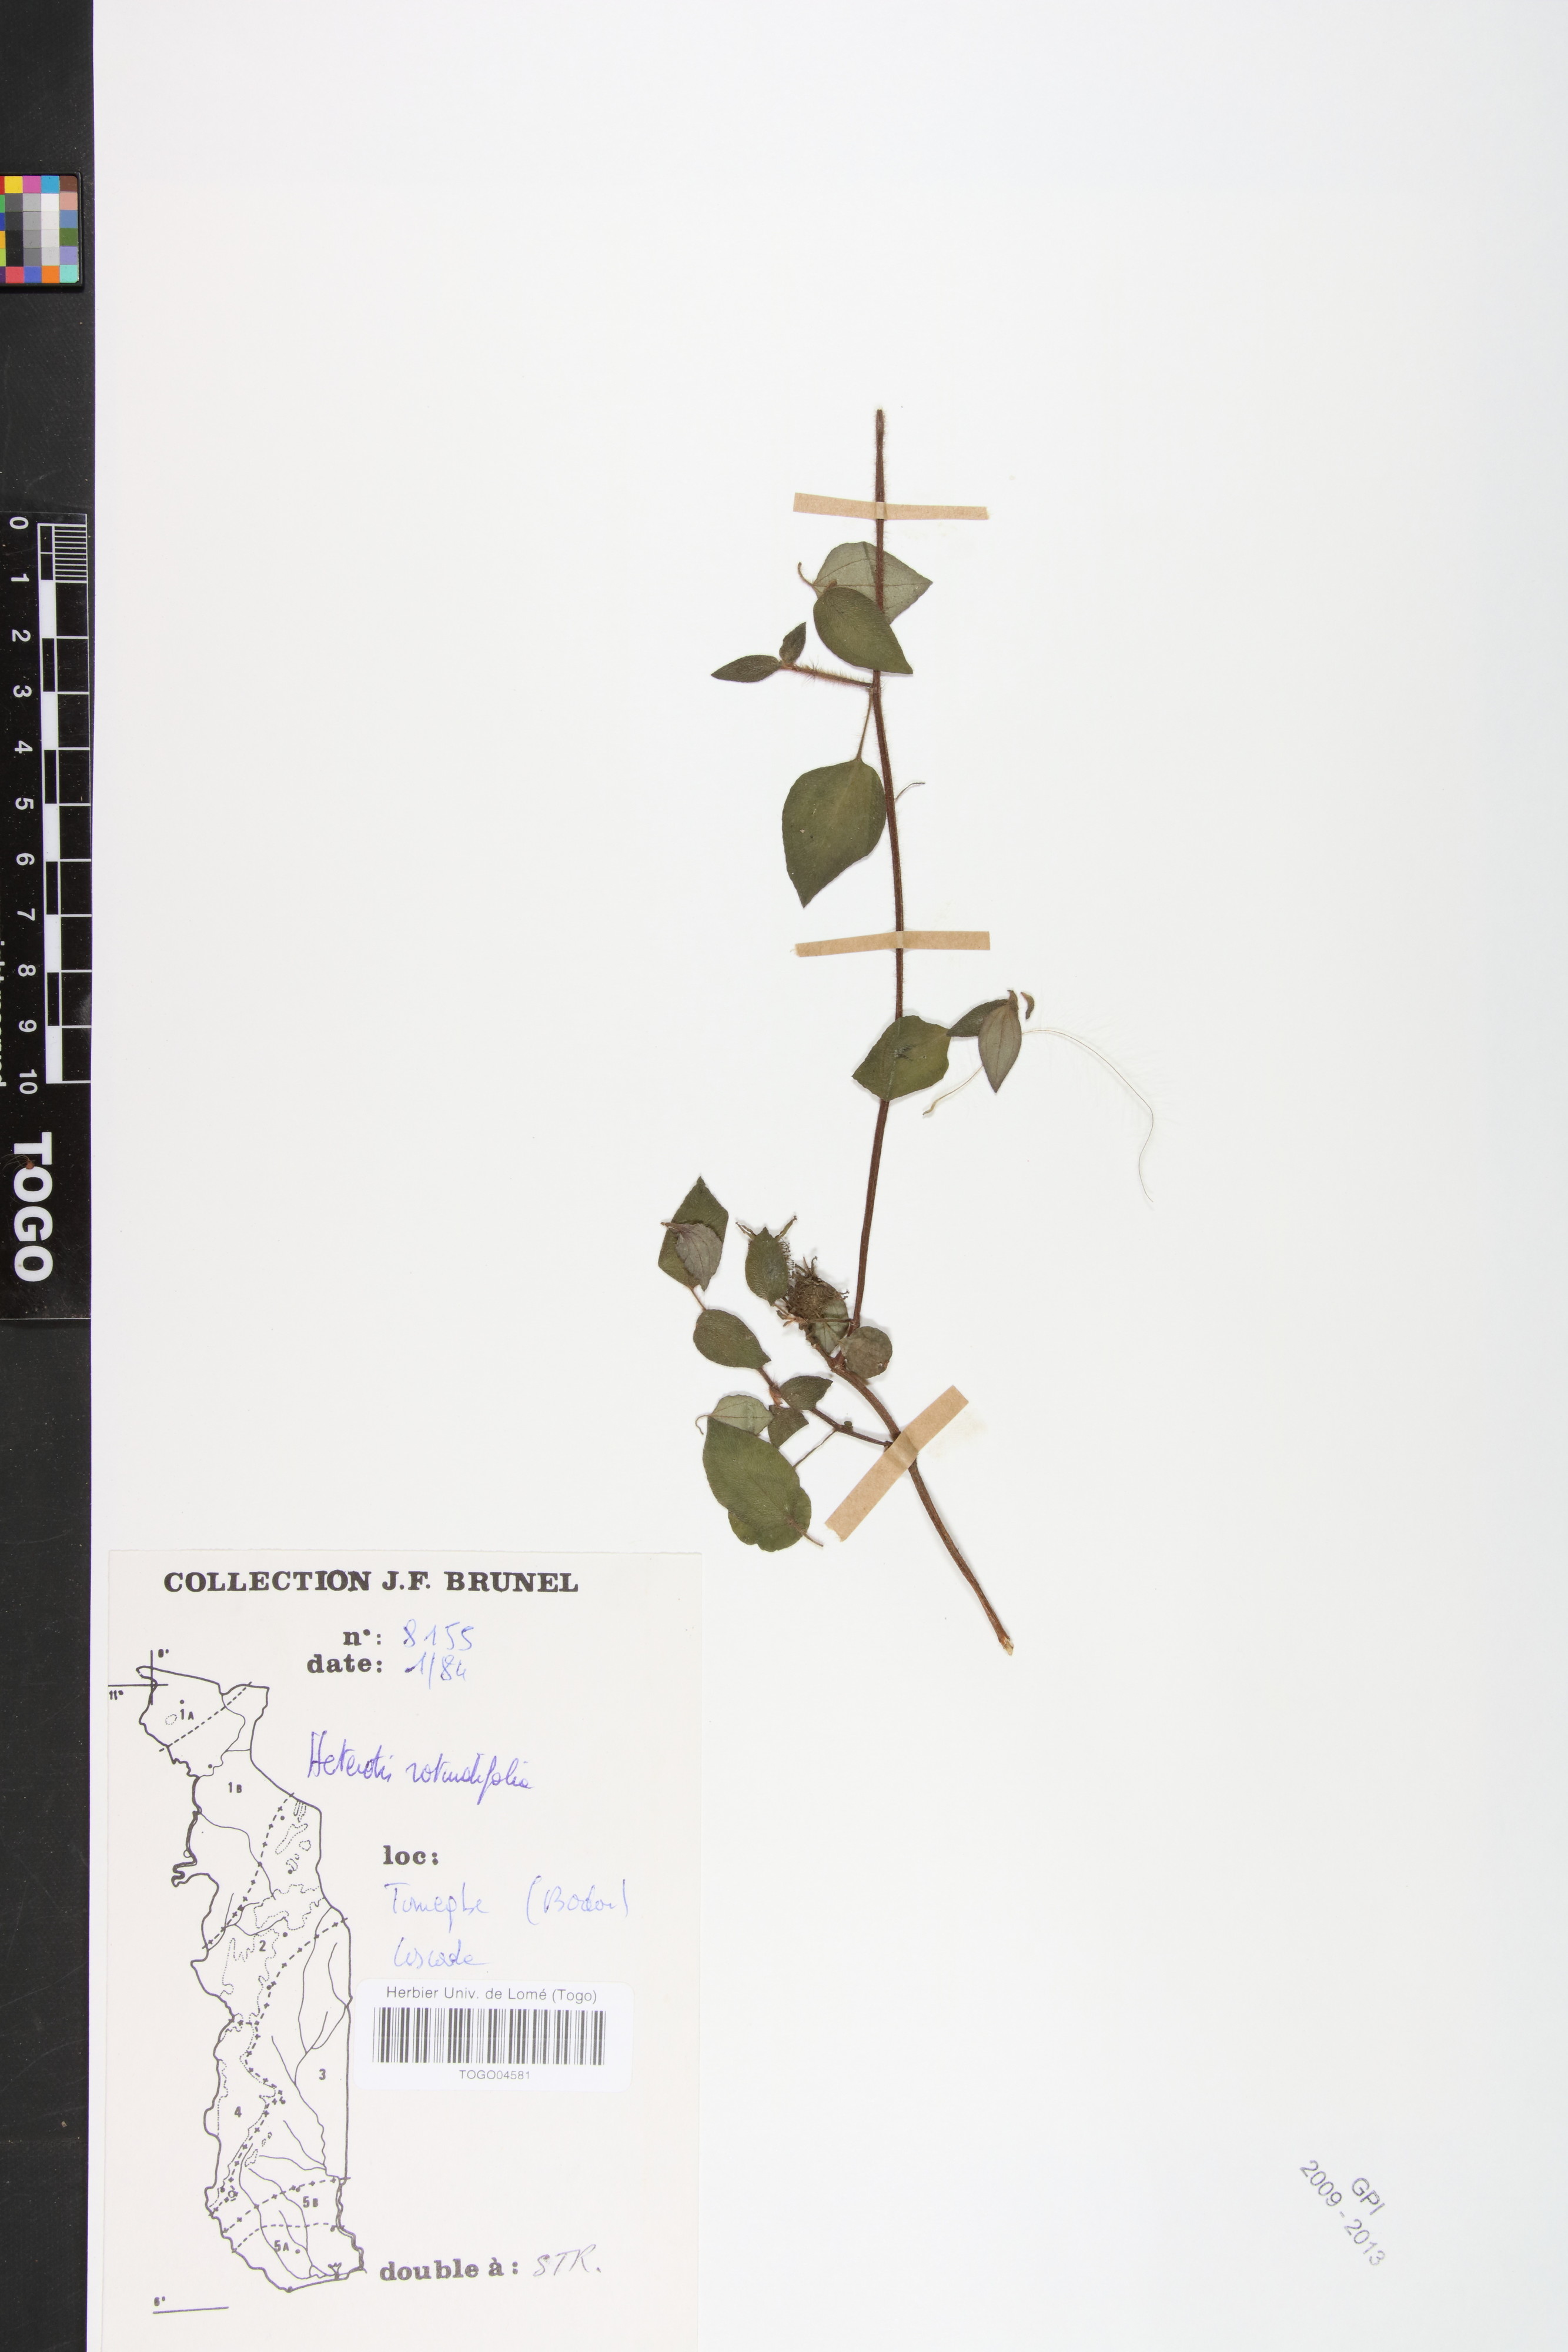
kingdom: Plantae
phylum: Tracheophyta
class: Magnoliopsida
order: Myrtales
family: Melastomataceae
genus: Heterotis
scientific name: Heterotis rotundifolia
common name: Pinklady
